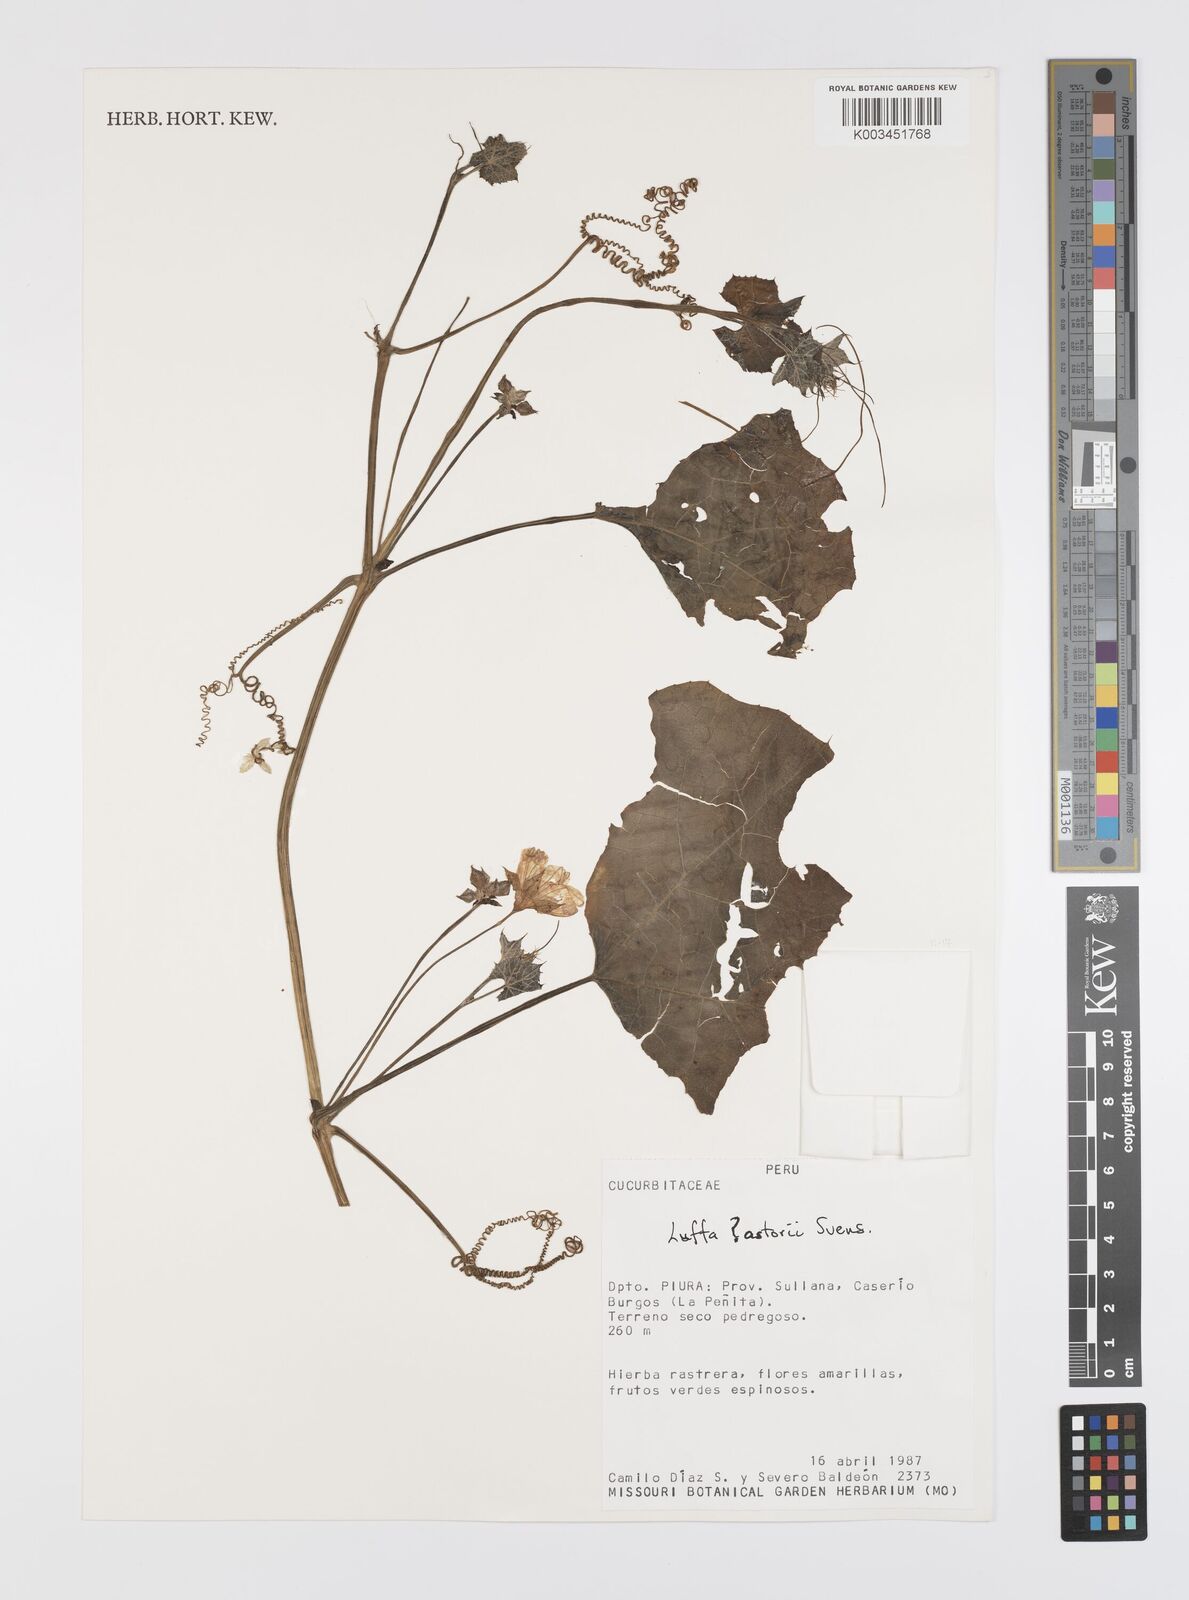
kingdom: Plantae
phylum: Tracheophyta
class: Magnoliopsida
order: Cucurbitales
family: Cucurbitaceae
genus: Luffa
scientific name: Luffa astorii
